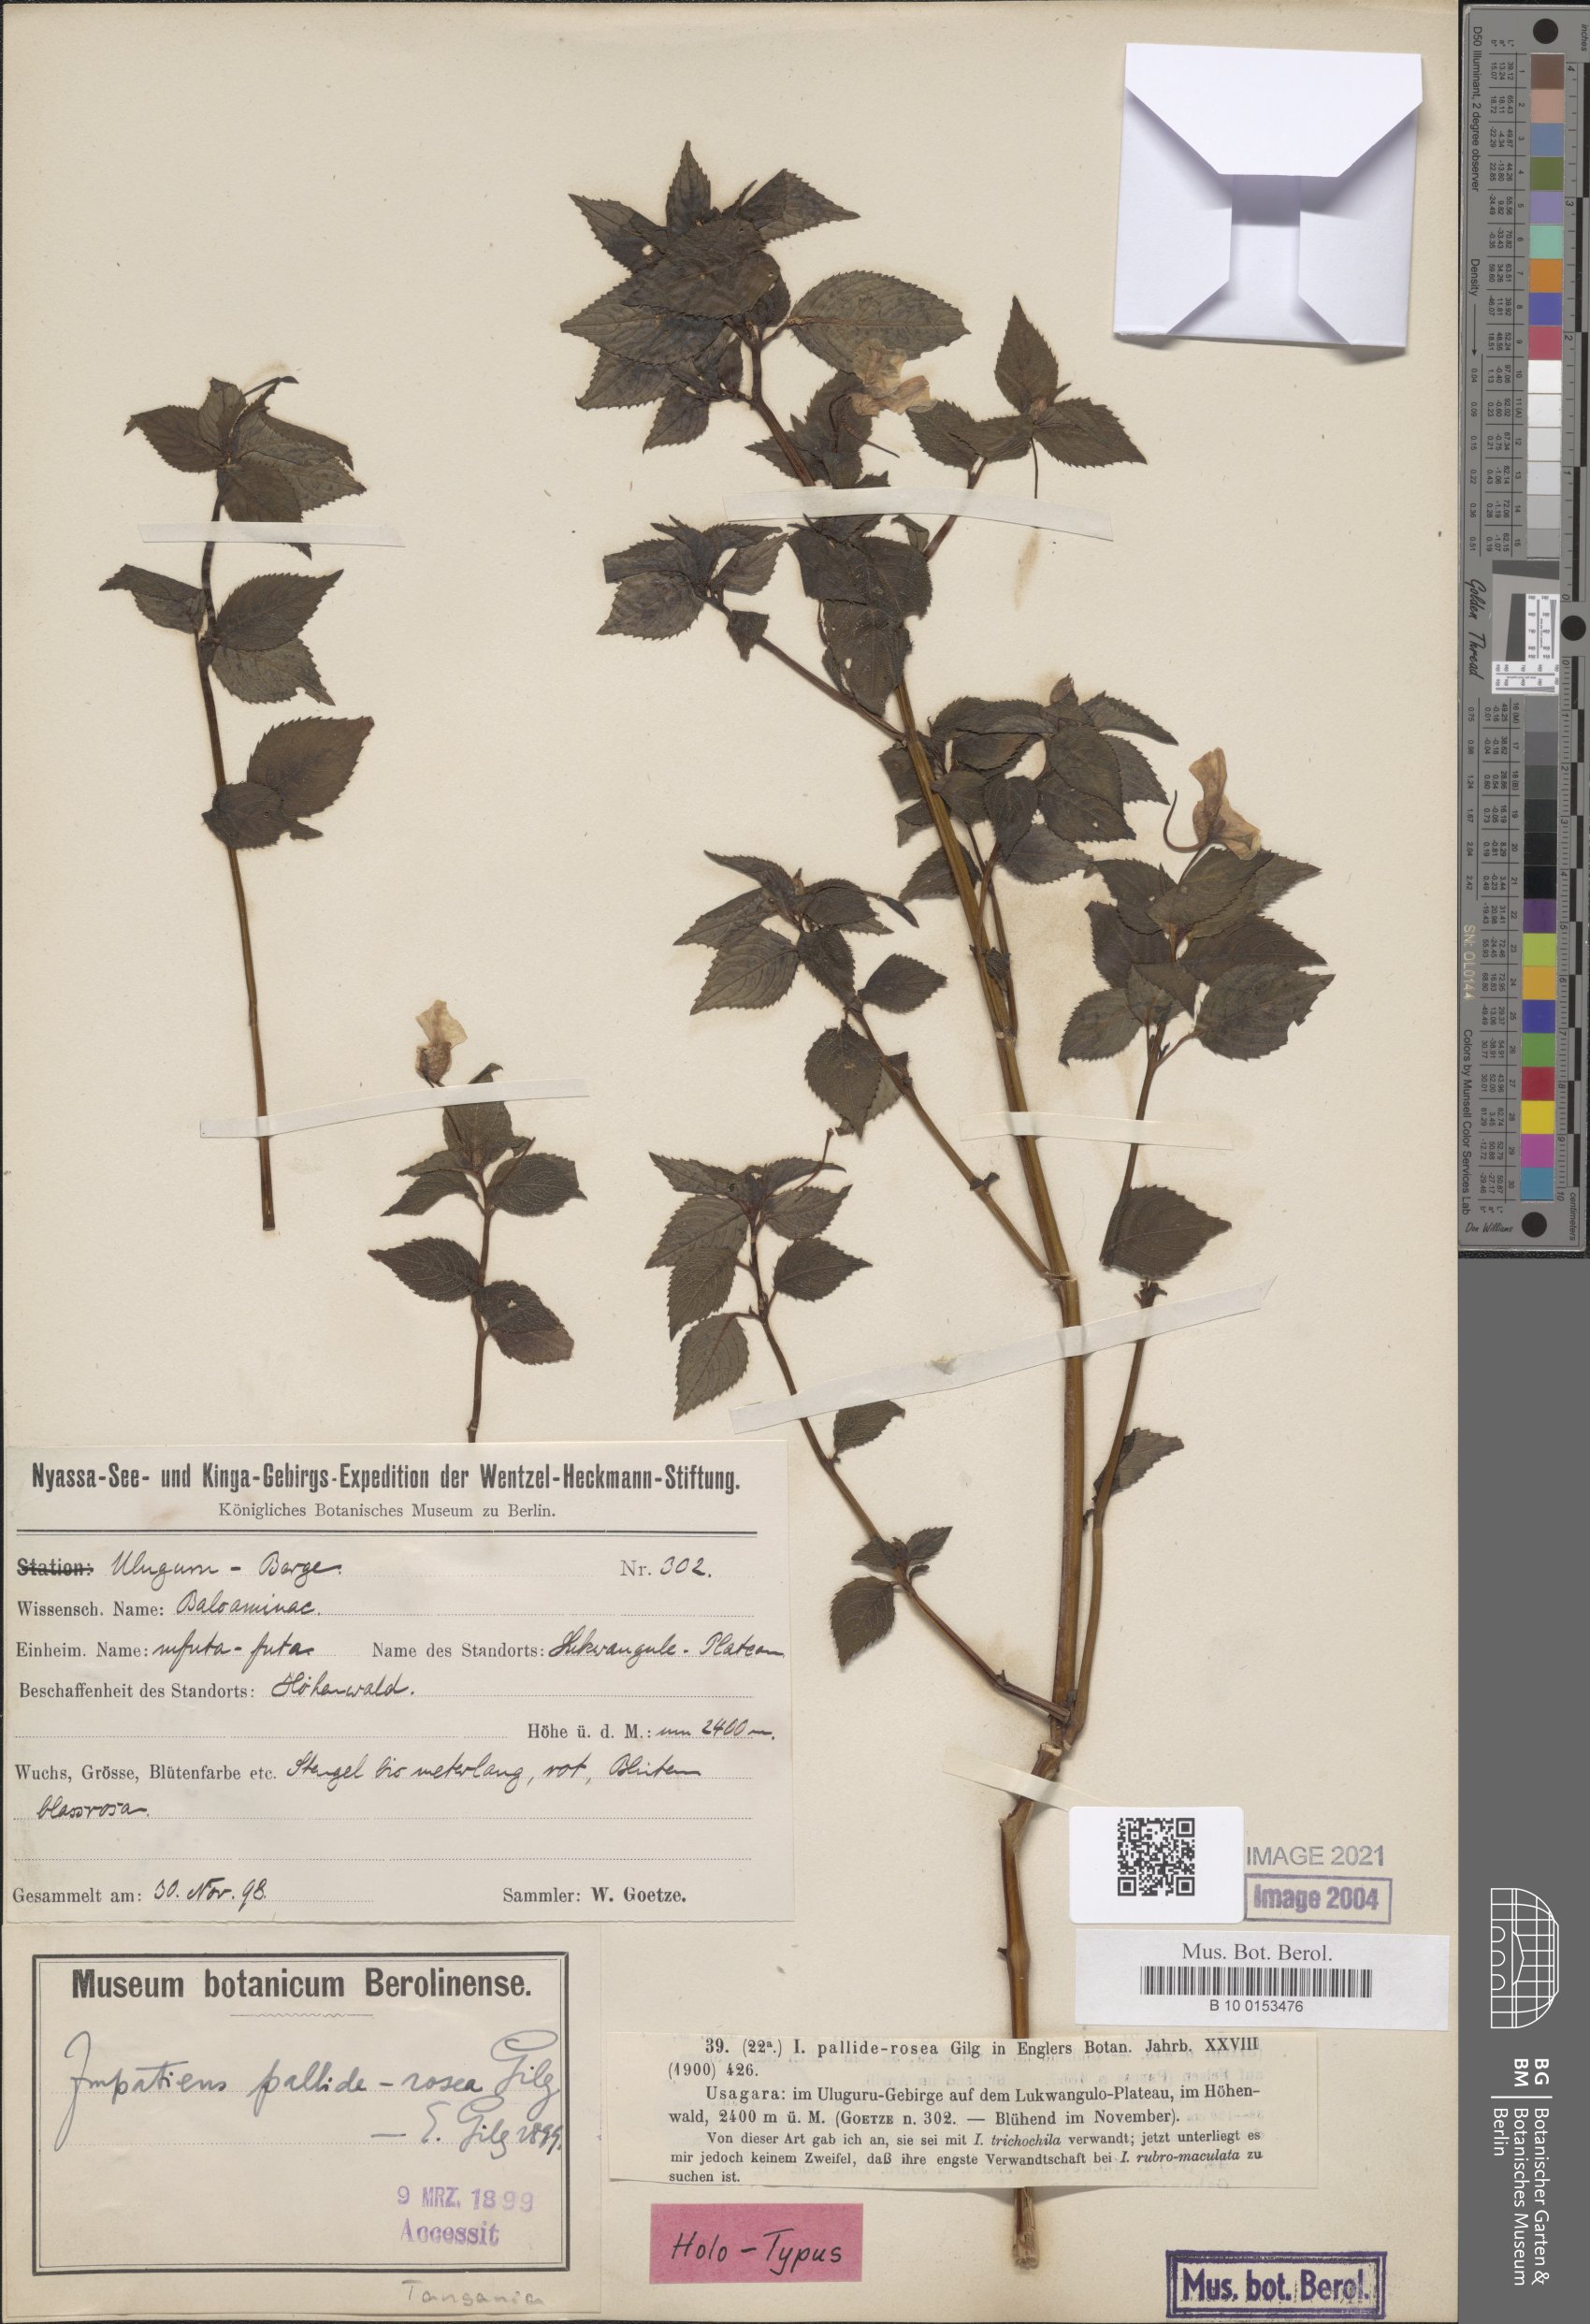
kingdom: Plantae
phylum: Tracheophyta
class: Magnoliopsida
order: Ericales
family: Balsaminaceae
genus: Impatiens
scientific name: Impatiens pallide-rosea
